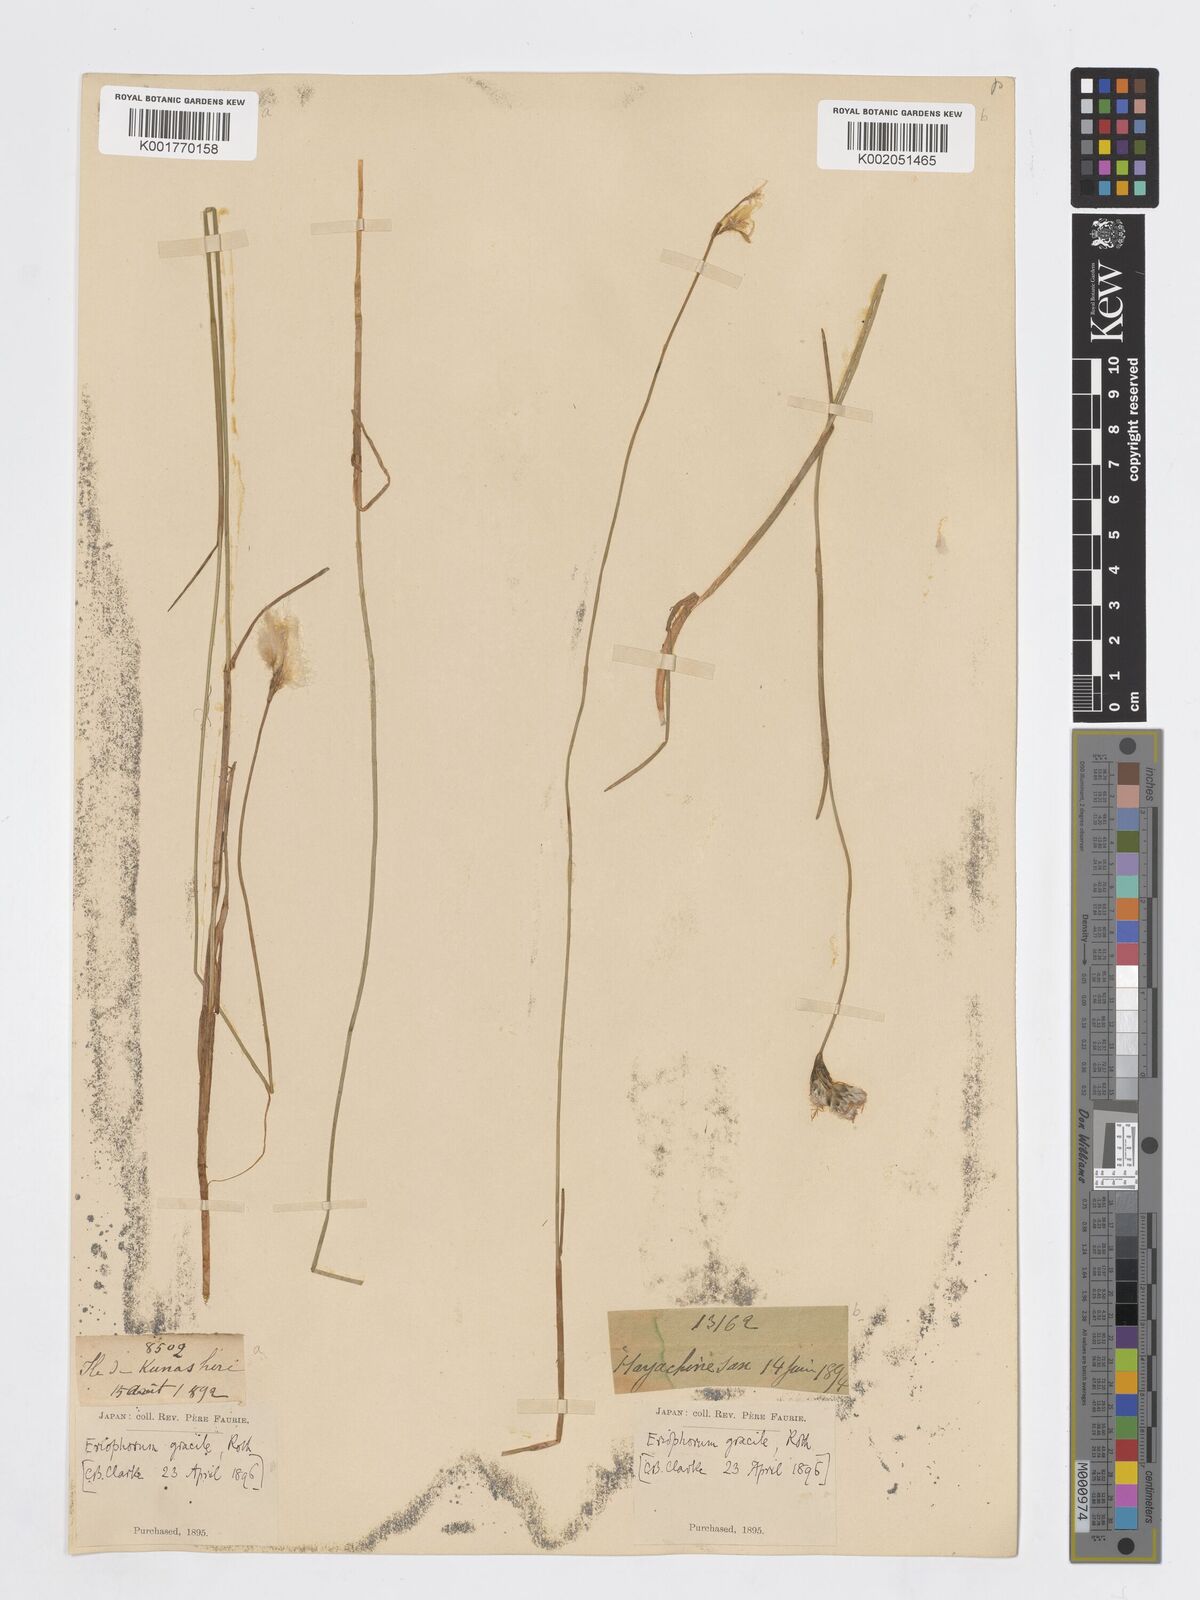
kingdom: Plantae
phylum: Tracheophyta
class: Liliopsida
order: Poales
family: Cyperaceae
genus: Eriophorum
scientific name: Eriophorum gracile
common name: Slender cottongrass
